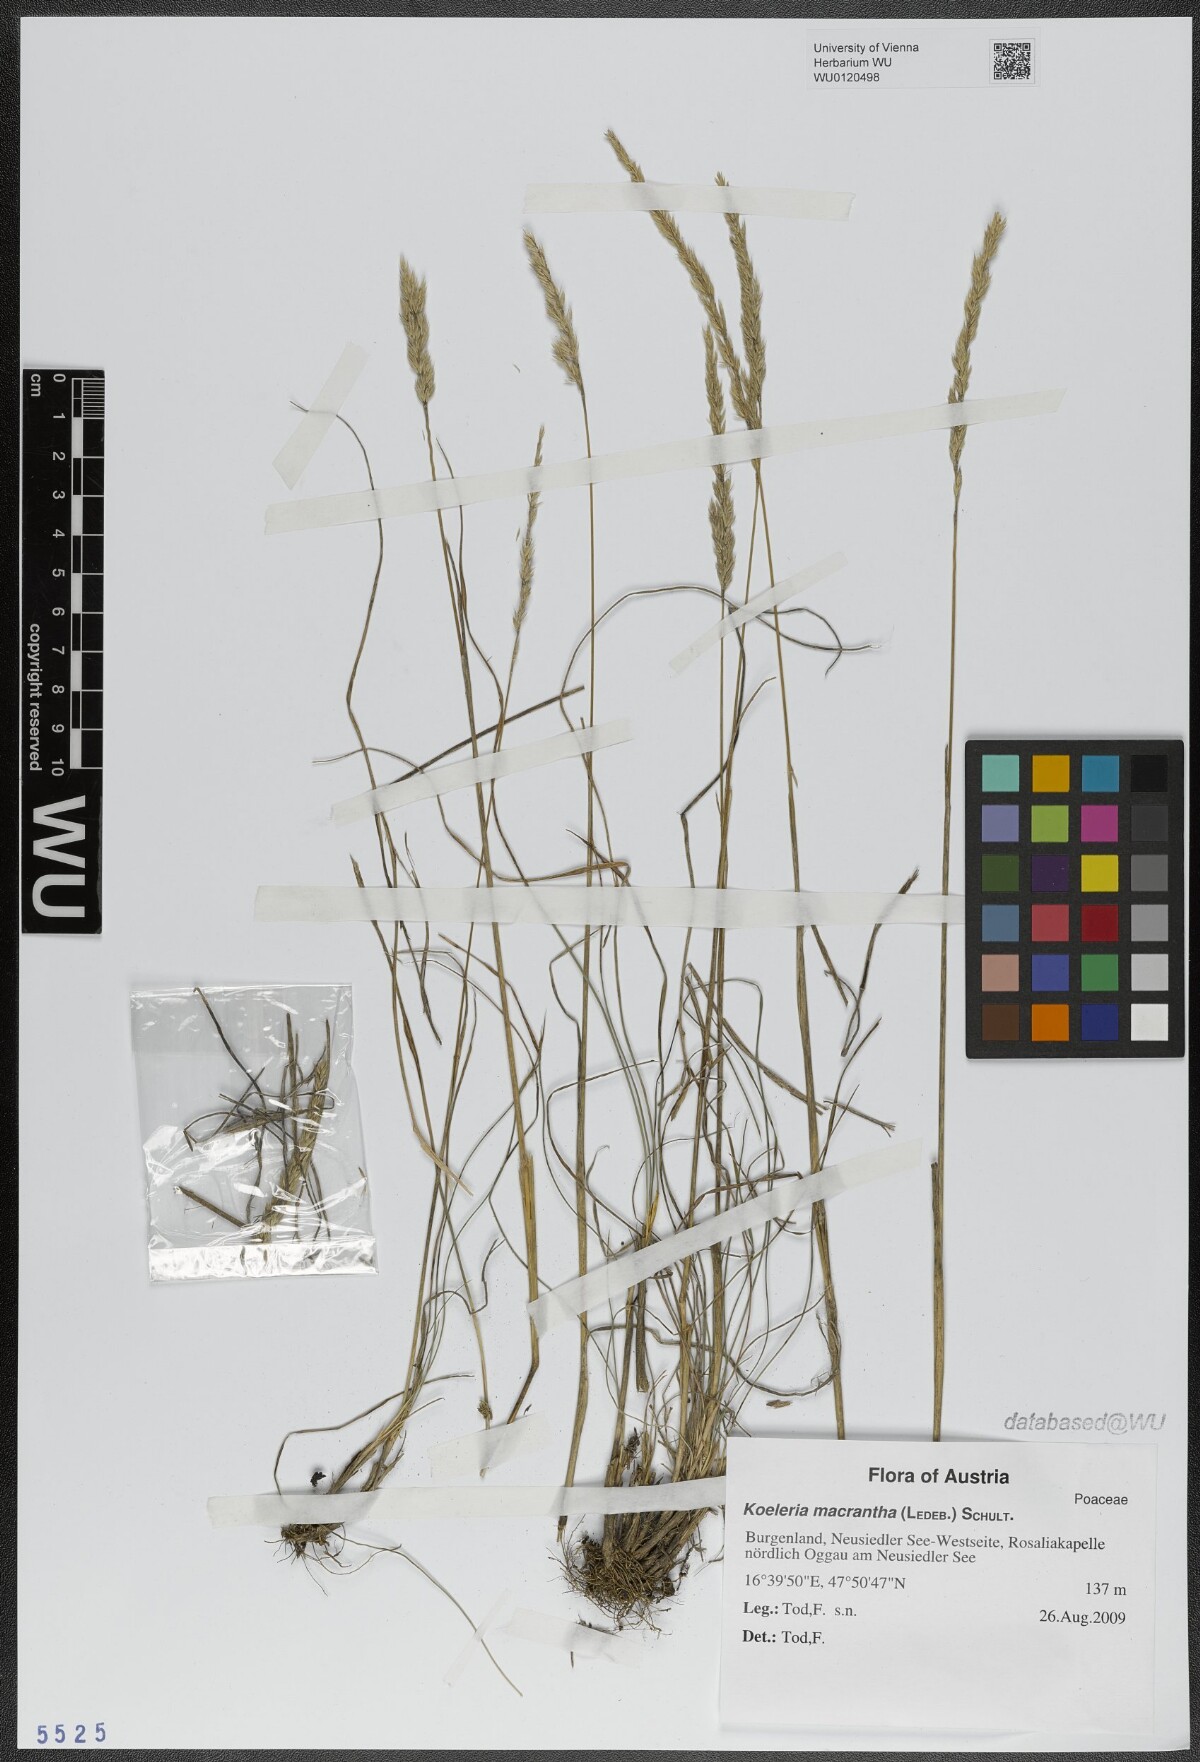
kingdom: Plantae
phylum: Tracheophyta
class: Liliopsida
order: Poales
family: Poaceae
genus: Koeleria
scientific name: Koeleria macrantha
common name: Crested hair-grass
